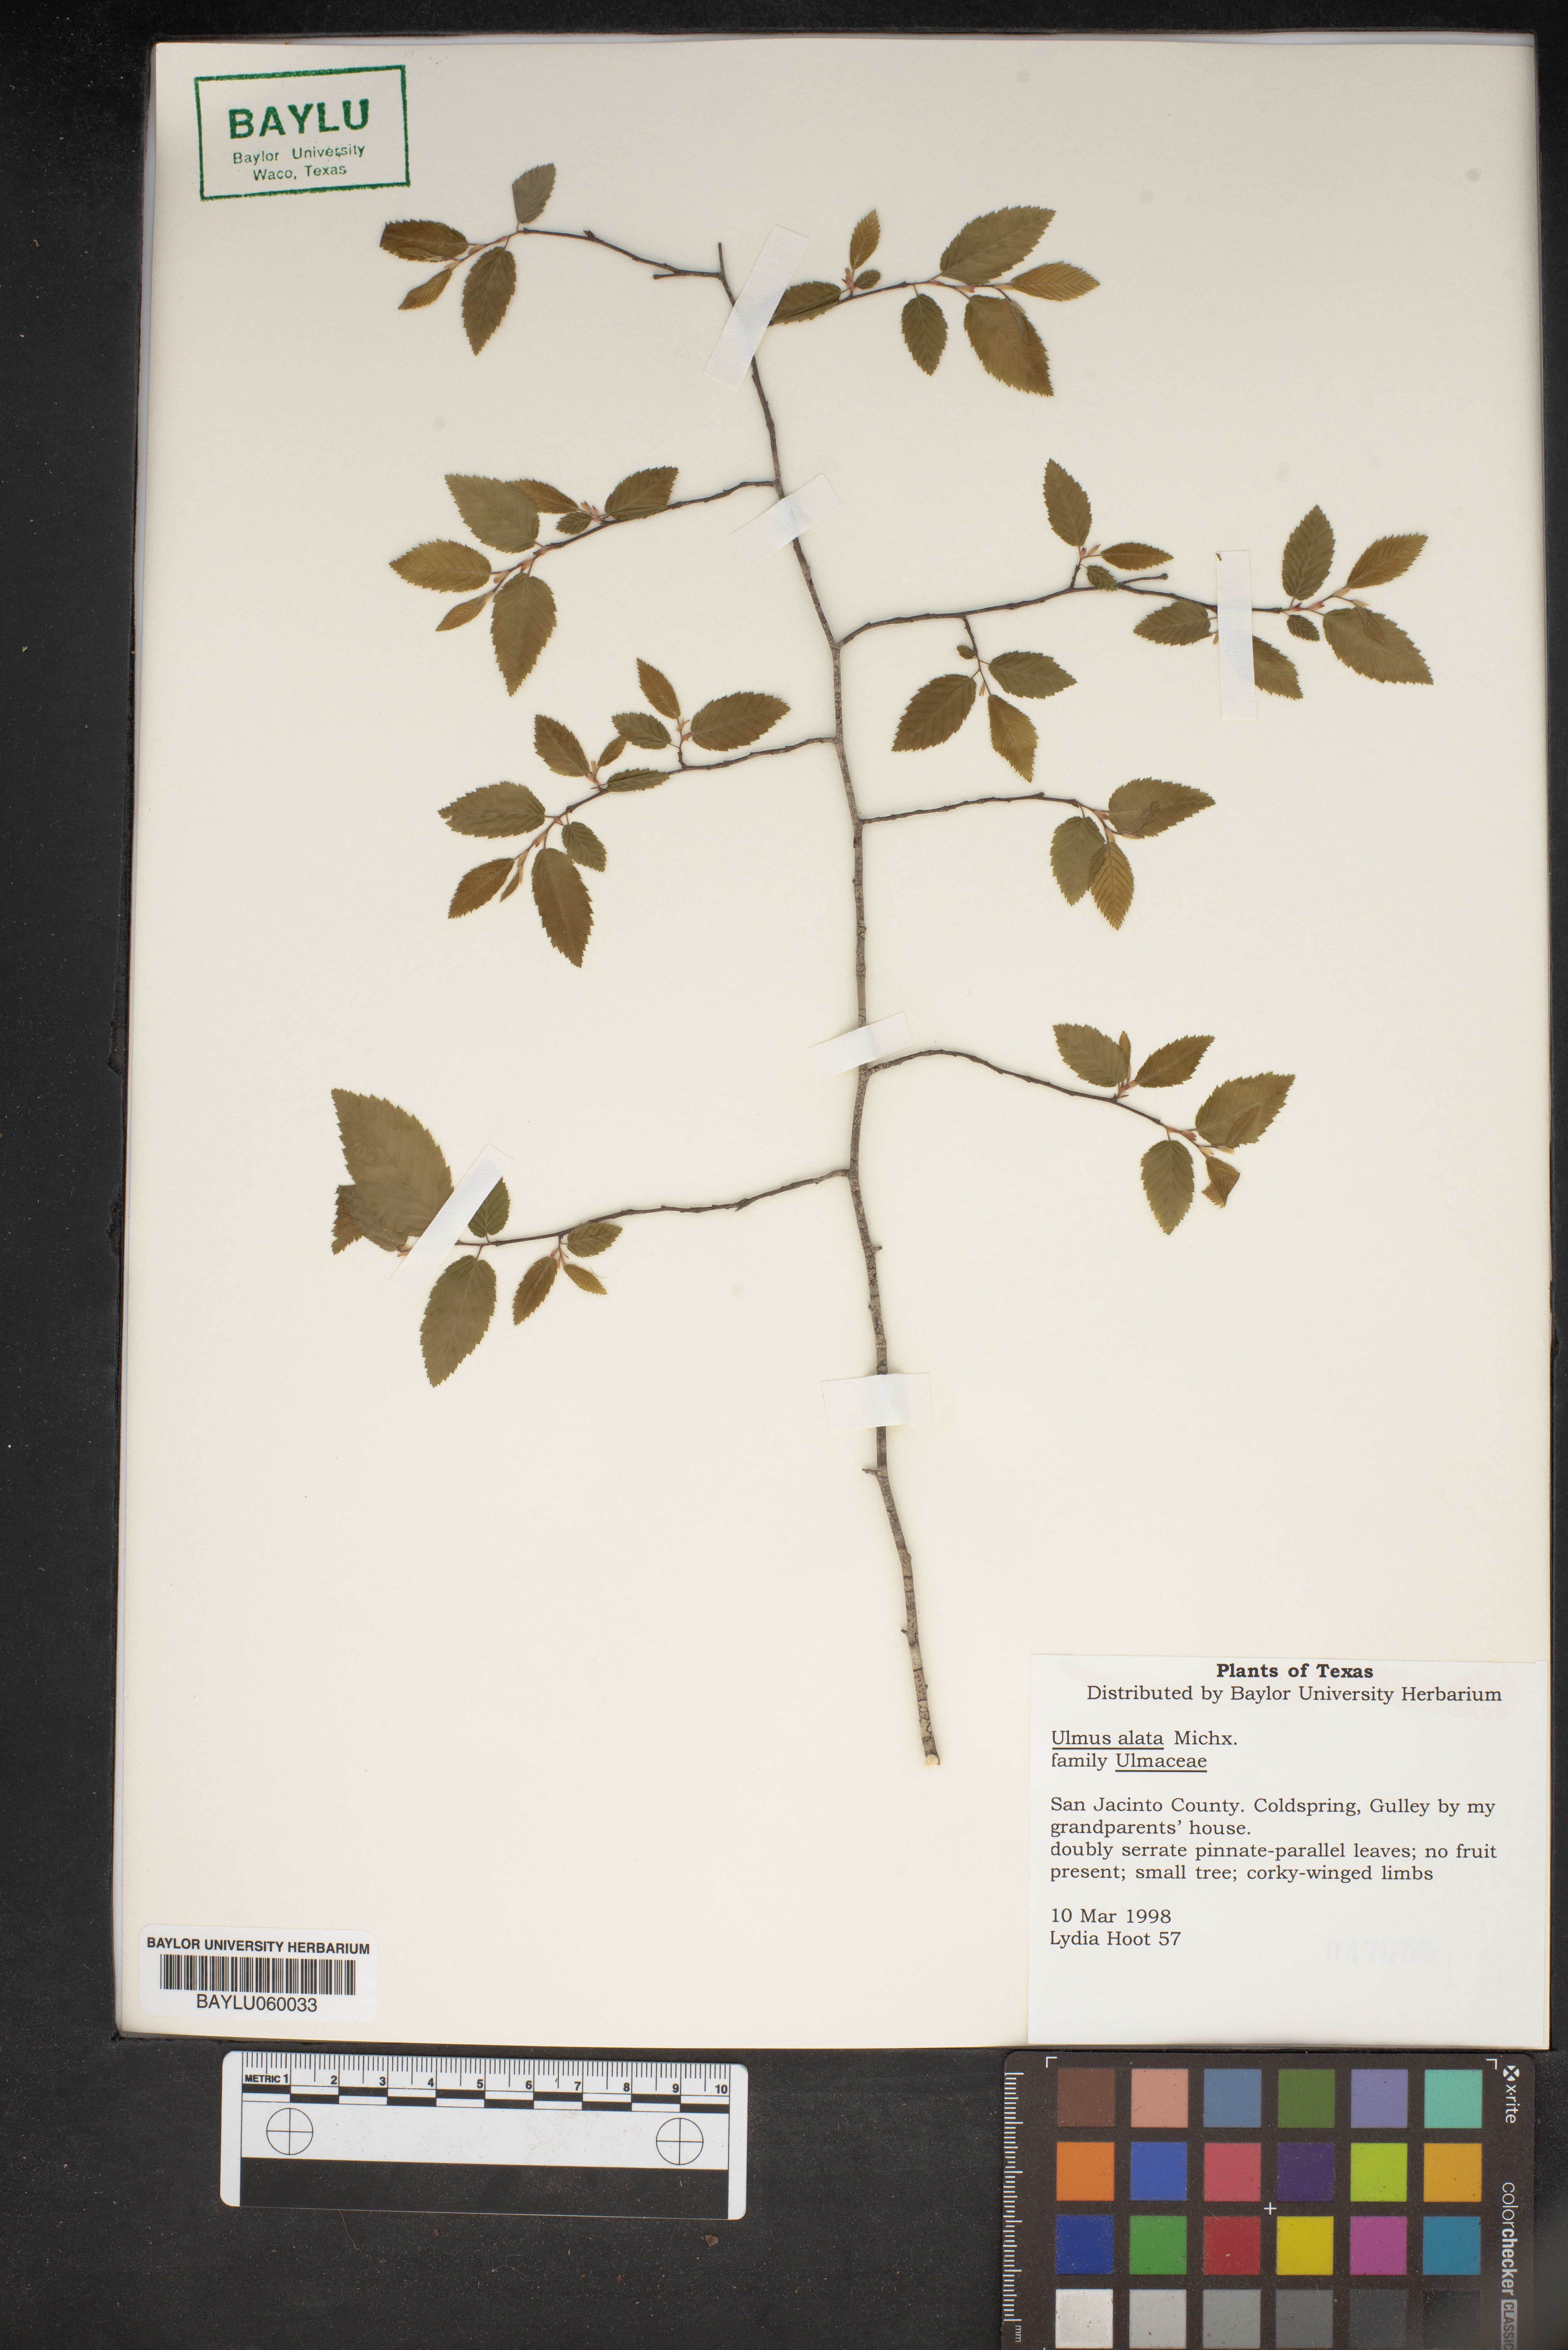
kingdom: Plantae
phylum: Tracheophyta
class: Magnoliopsida
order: Rosales
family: Ulmaceae
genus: Ulmus
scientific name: Ulmus alata
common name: Winged elm
